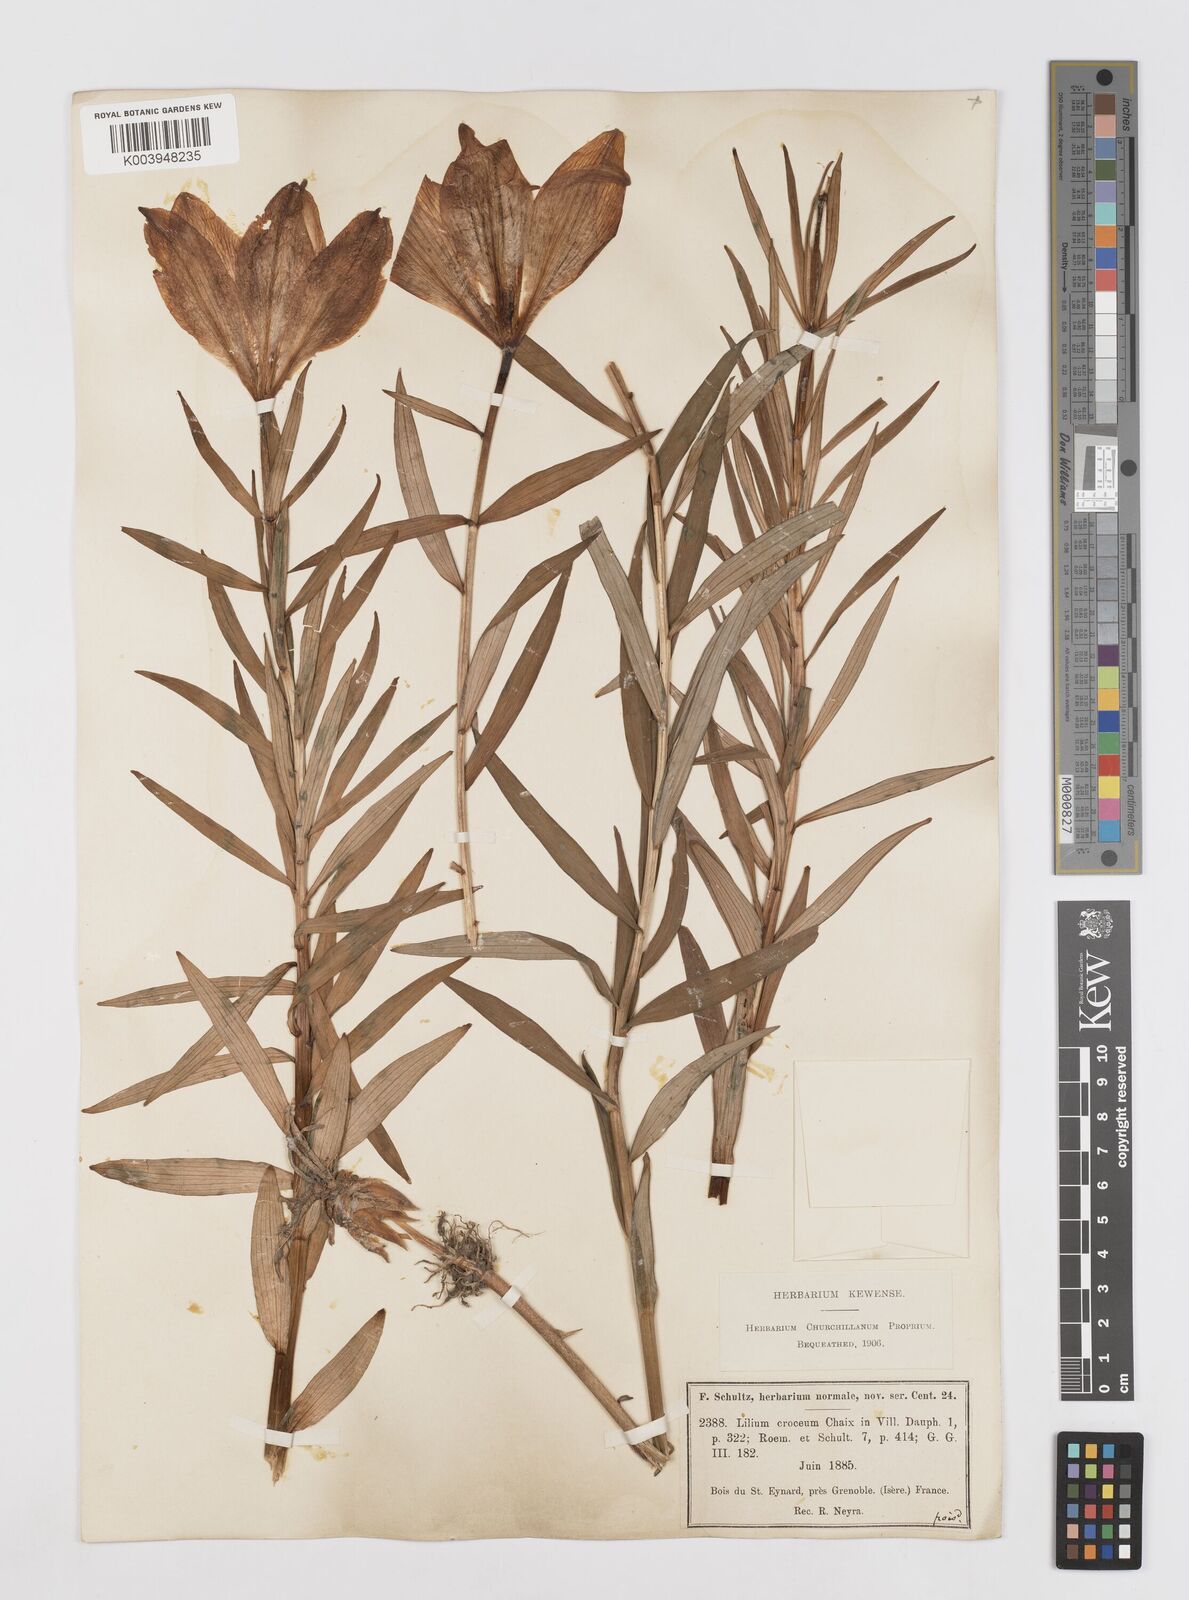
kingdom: Plantae
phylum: Tracheophyta
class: Liliopsida
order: Liliales
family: Liliaceae
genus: Lilium
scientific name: Lilium bulbiferum
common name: Orange lily
